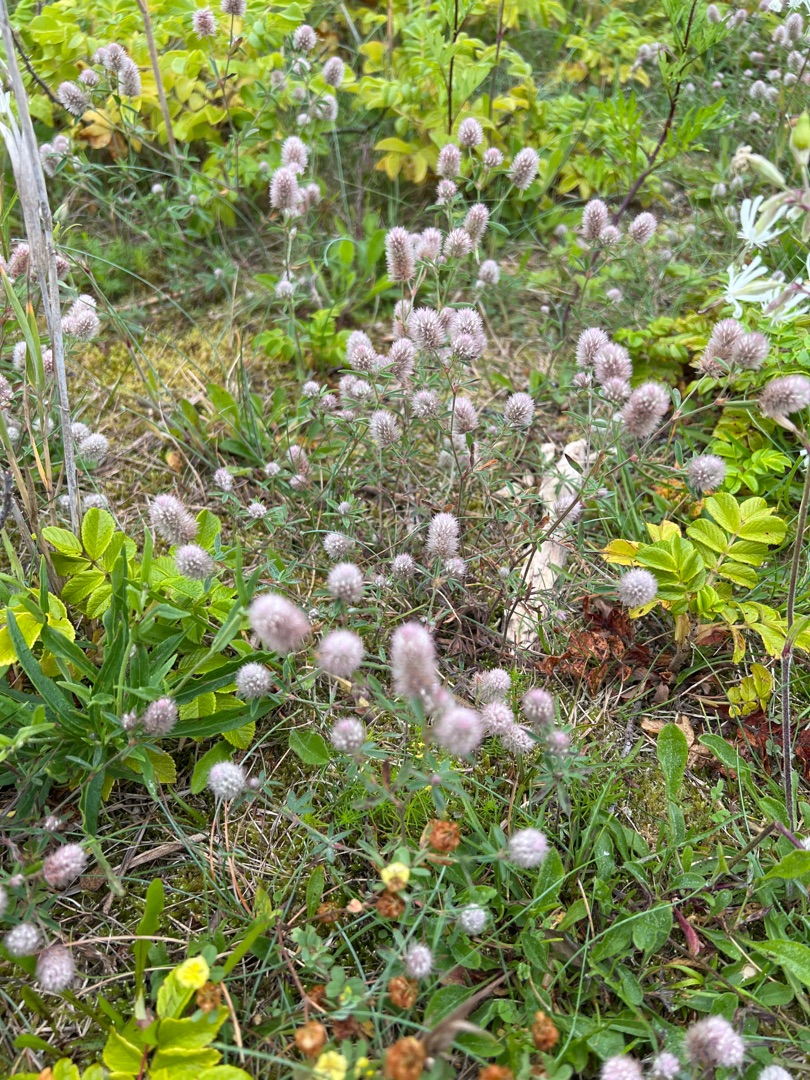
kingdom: Plantae
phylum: Tracheophyta
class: Magnoliopsida
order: Fabales
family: Fabaceae
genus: Trifolium
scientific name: Trifolium arvense
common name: Hare-kløver
